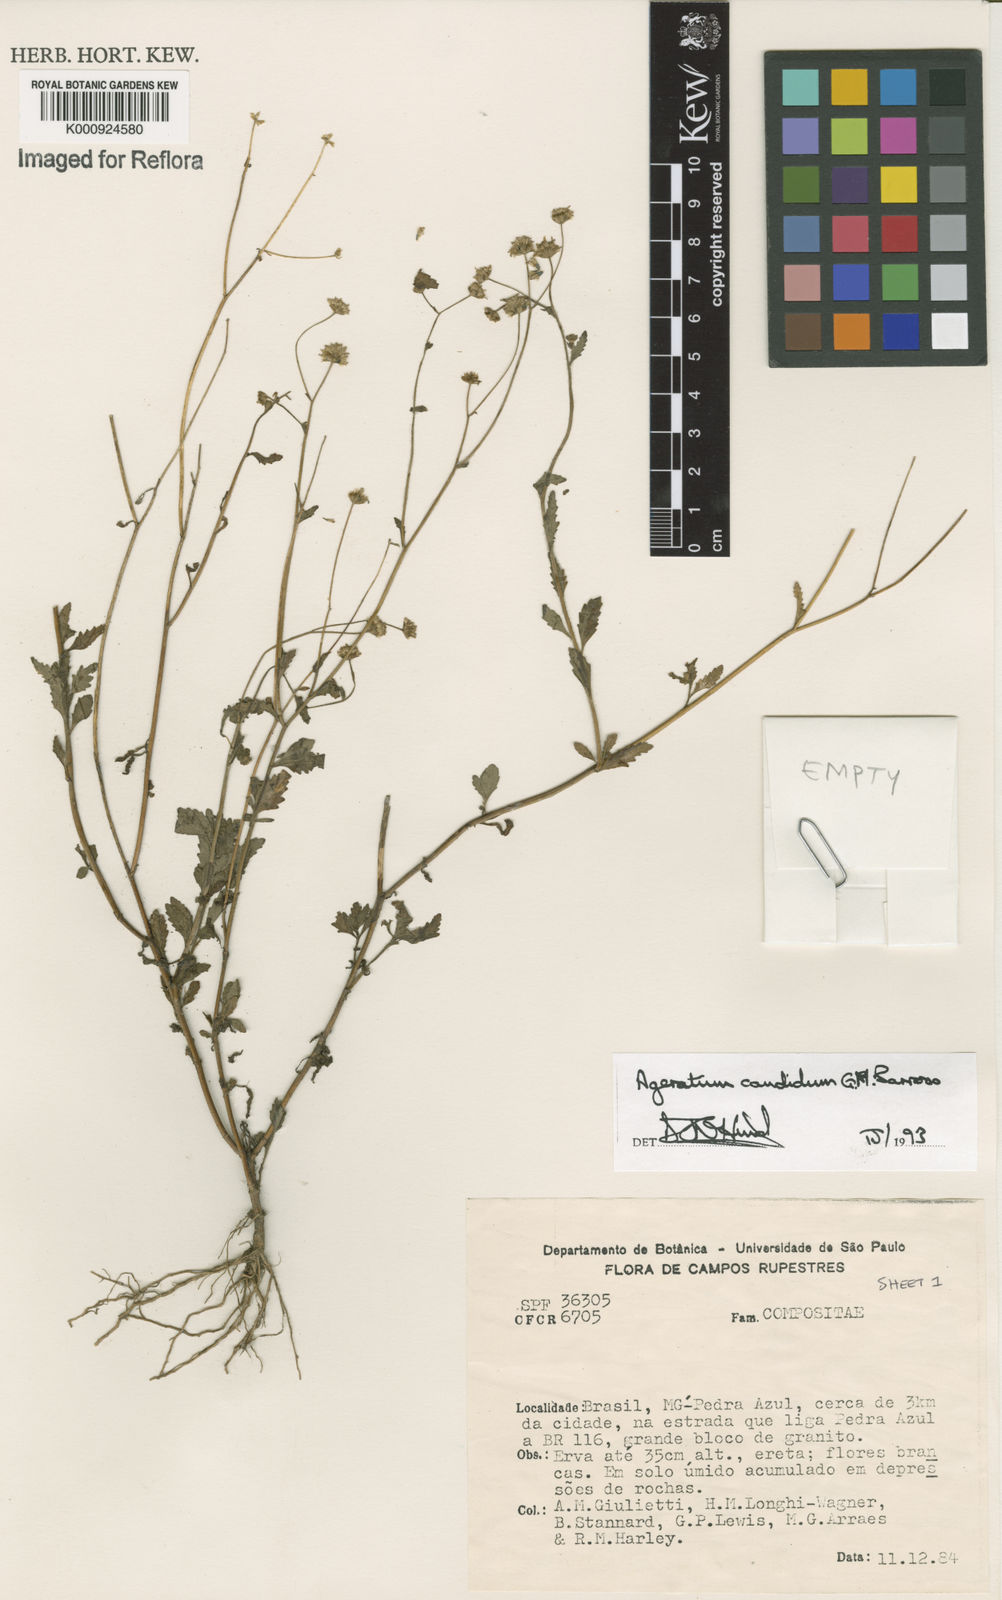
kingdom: Plantae
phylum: Tracheophyta
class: Magnoliopsida
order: Asterales
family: Asteraceae
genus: Ageratum
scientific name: Ageratum candidum
